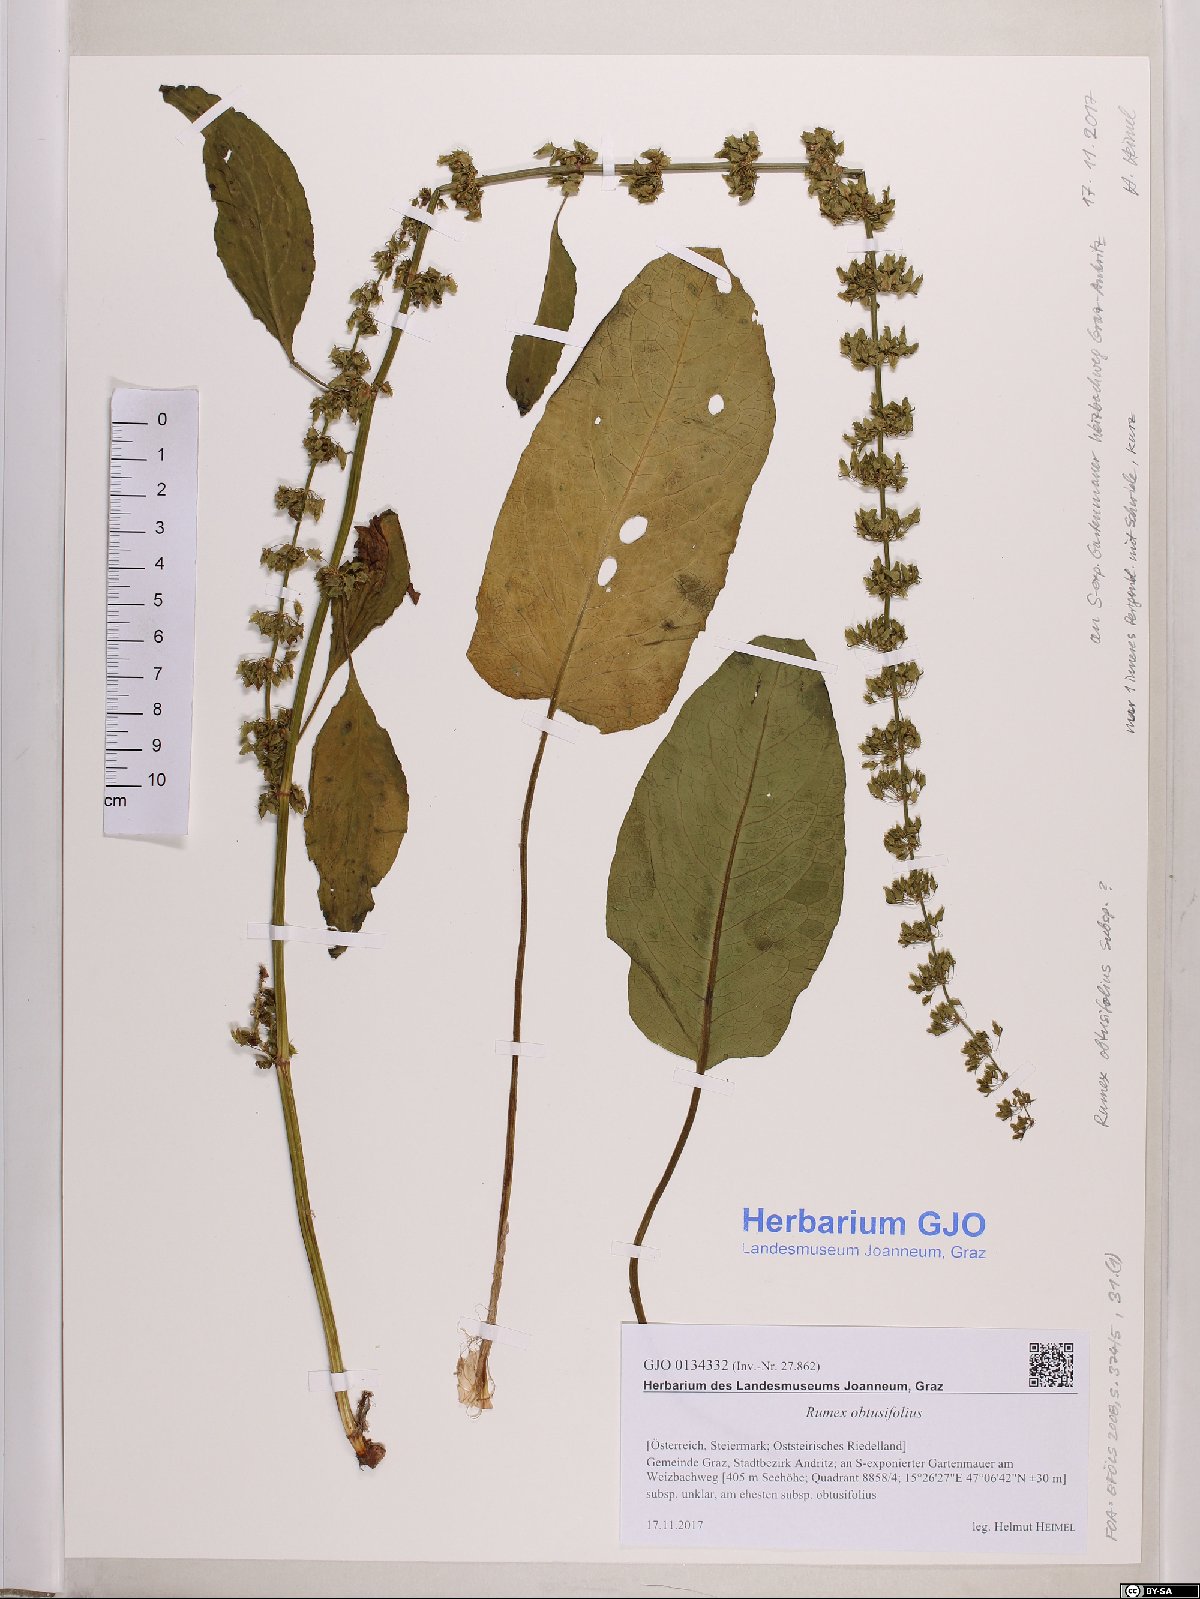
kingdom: Plantae
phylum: Tracheophyta
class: Magnoliopsida
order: Caryophyllales
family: Polygonaceae
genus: Rumex
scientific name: Rumex obtusifolius
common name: Bitter dock
